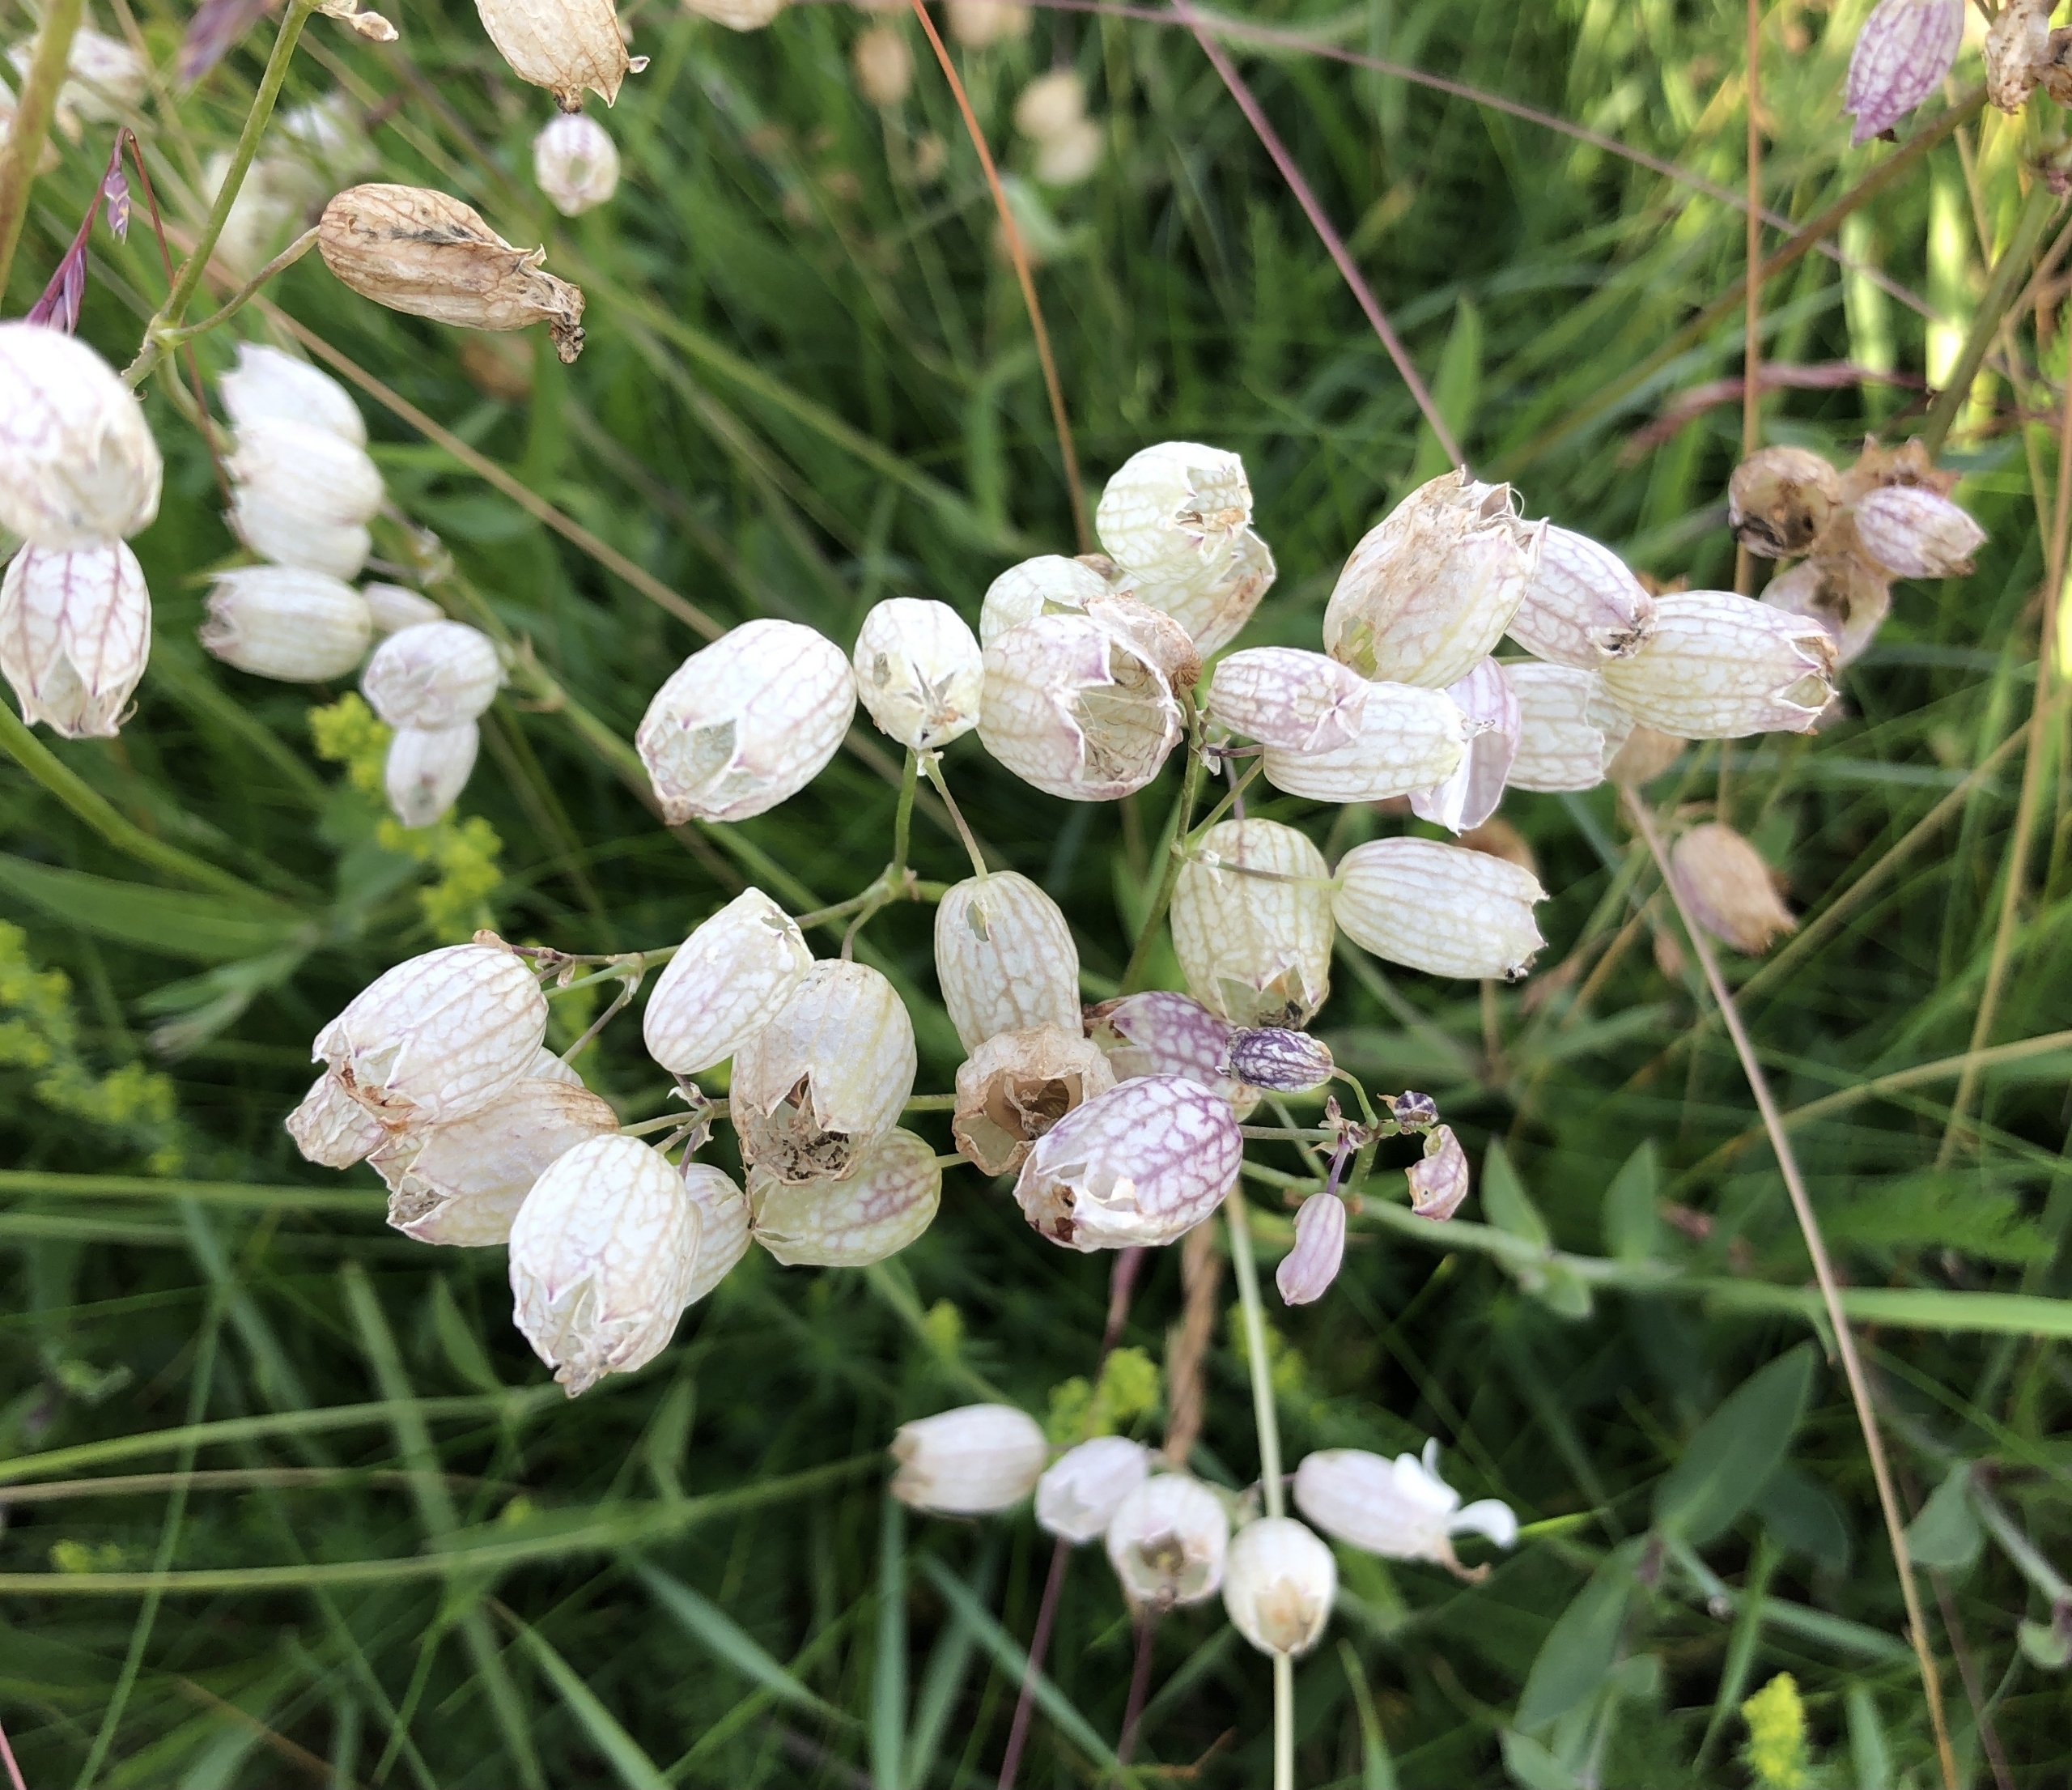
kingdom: Plantae
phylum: Tracheophyta
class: Magnoliopsida
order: Caryophyllales
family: Caryophyllaceae
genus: Silene
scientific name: Silene vulgaris
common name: Blæresmælde
